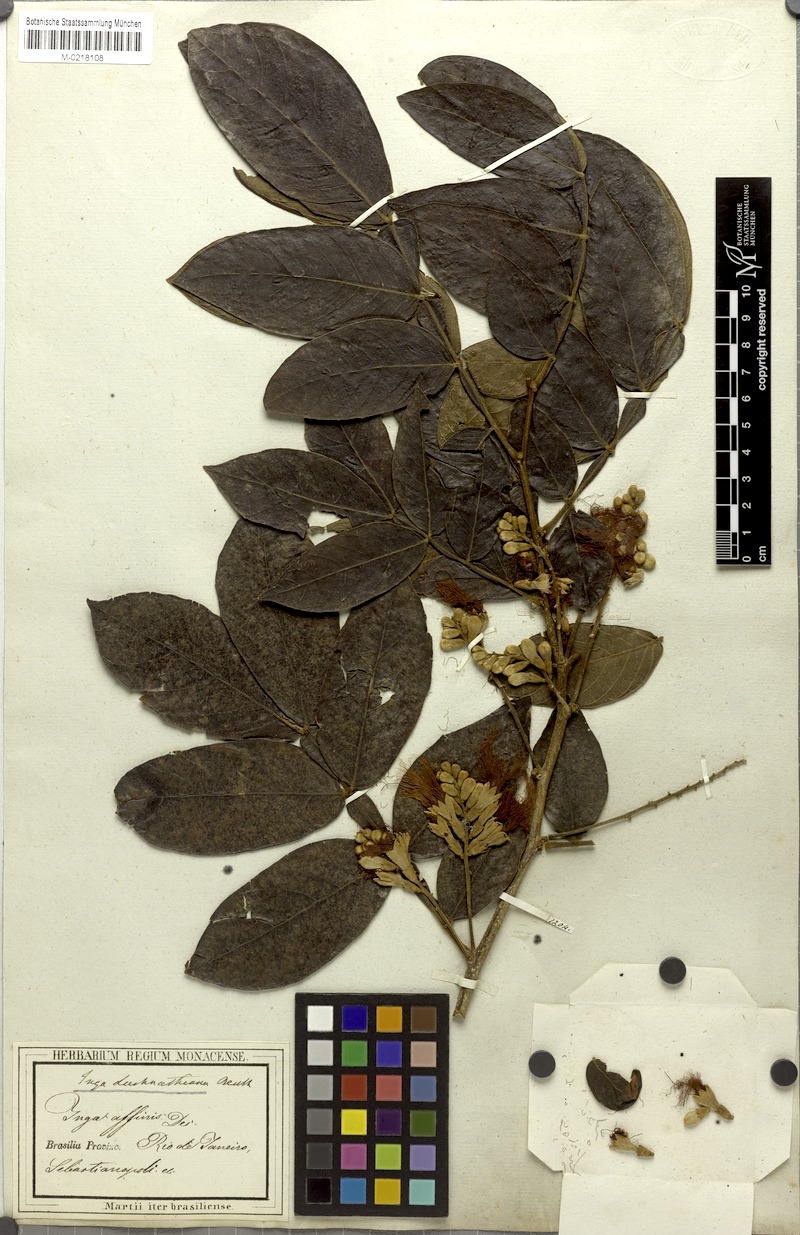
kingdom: Plantae
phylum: Tracheophyta
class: Magnoliopsida
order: Fabales
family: Fabaceae
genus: Inga
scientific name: Inga subnuda
